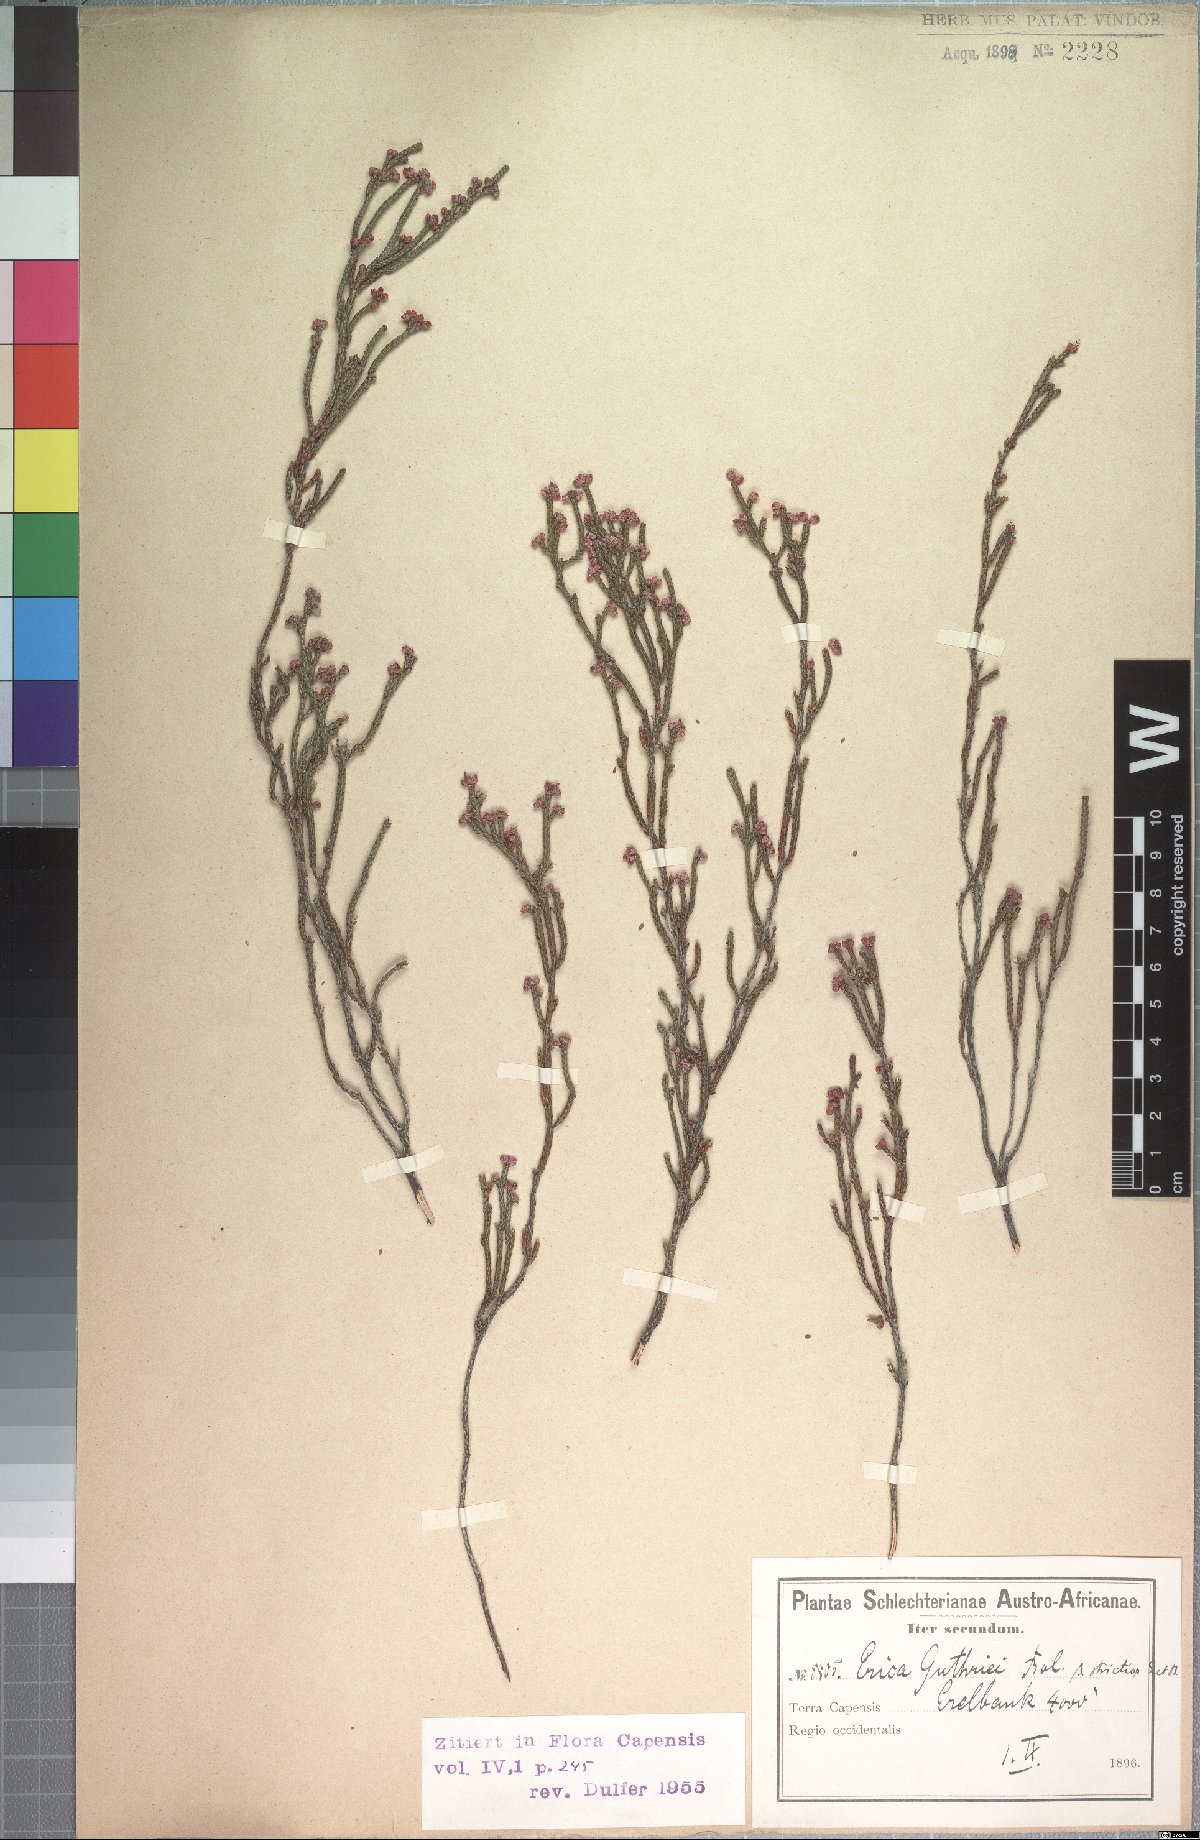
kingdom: Plantae
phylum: Tracheophyta
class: Magnoliopsida
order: Ericales
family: Ericaceae
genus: Erica
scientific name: Erica guthriei
